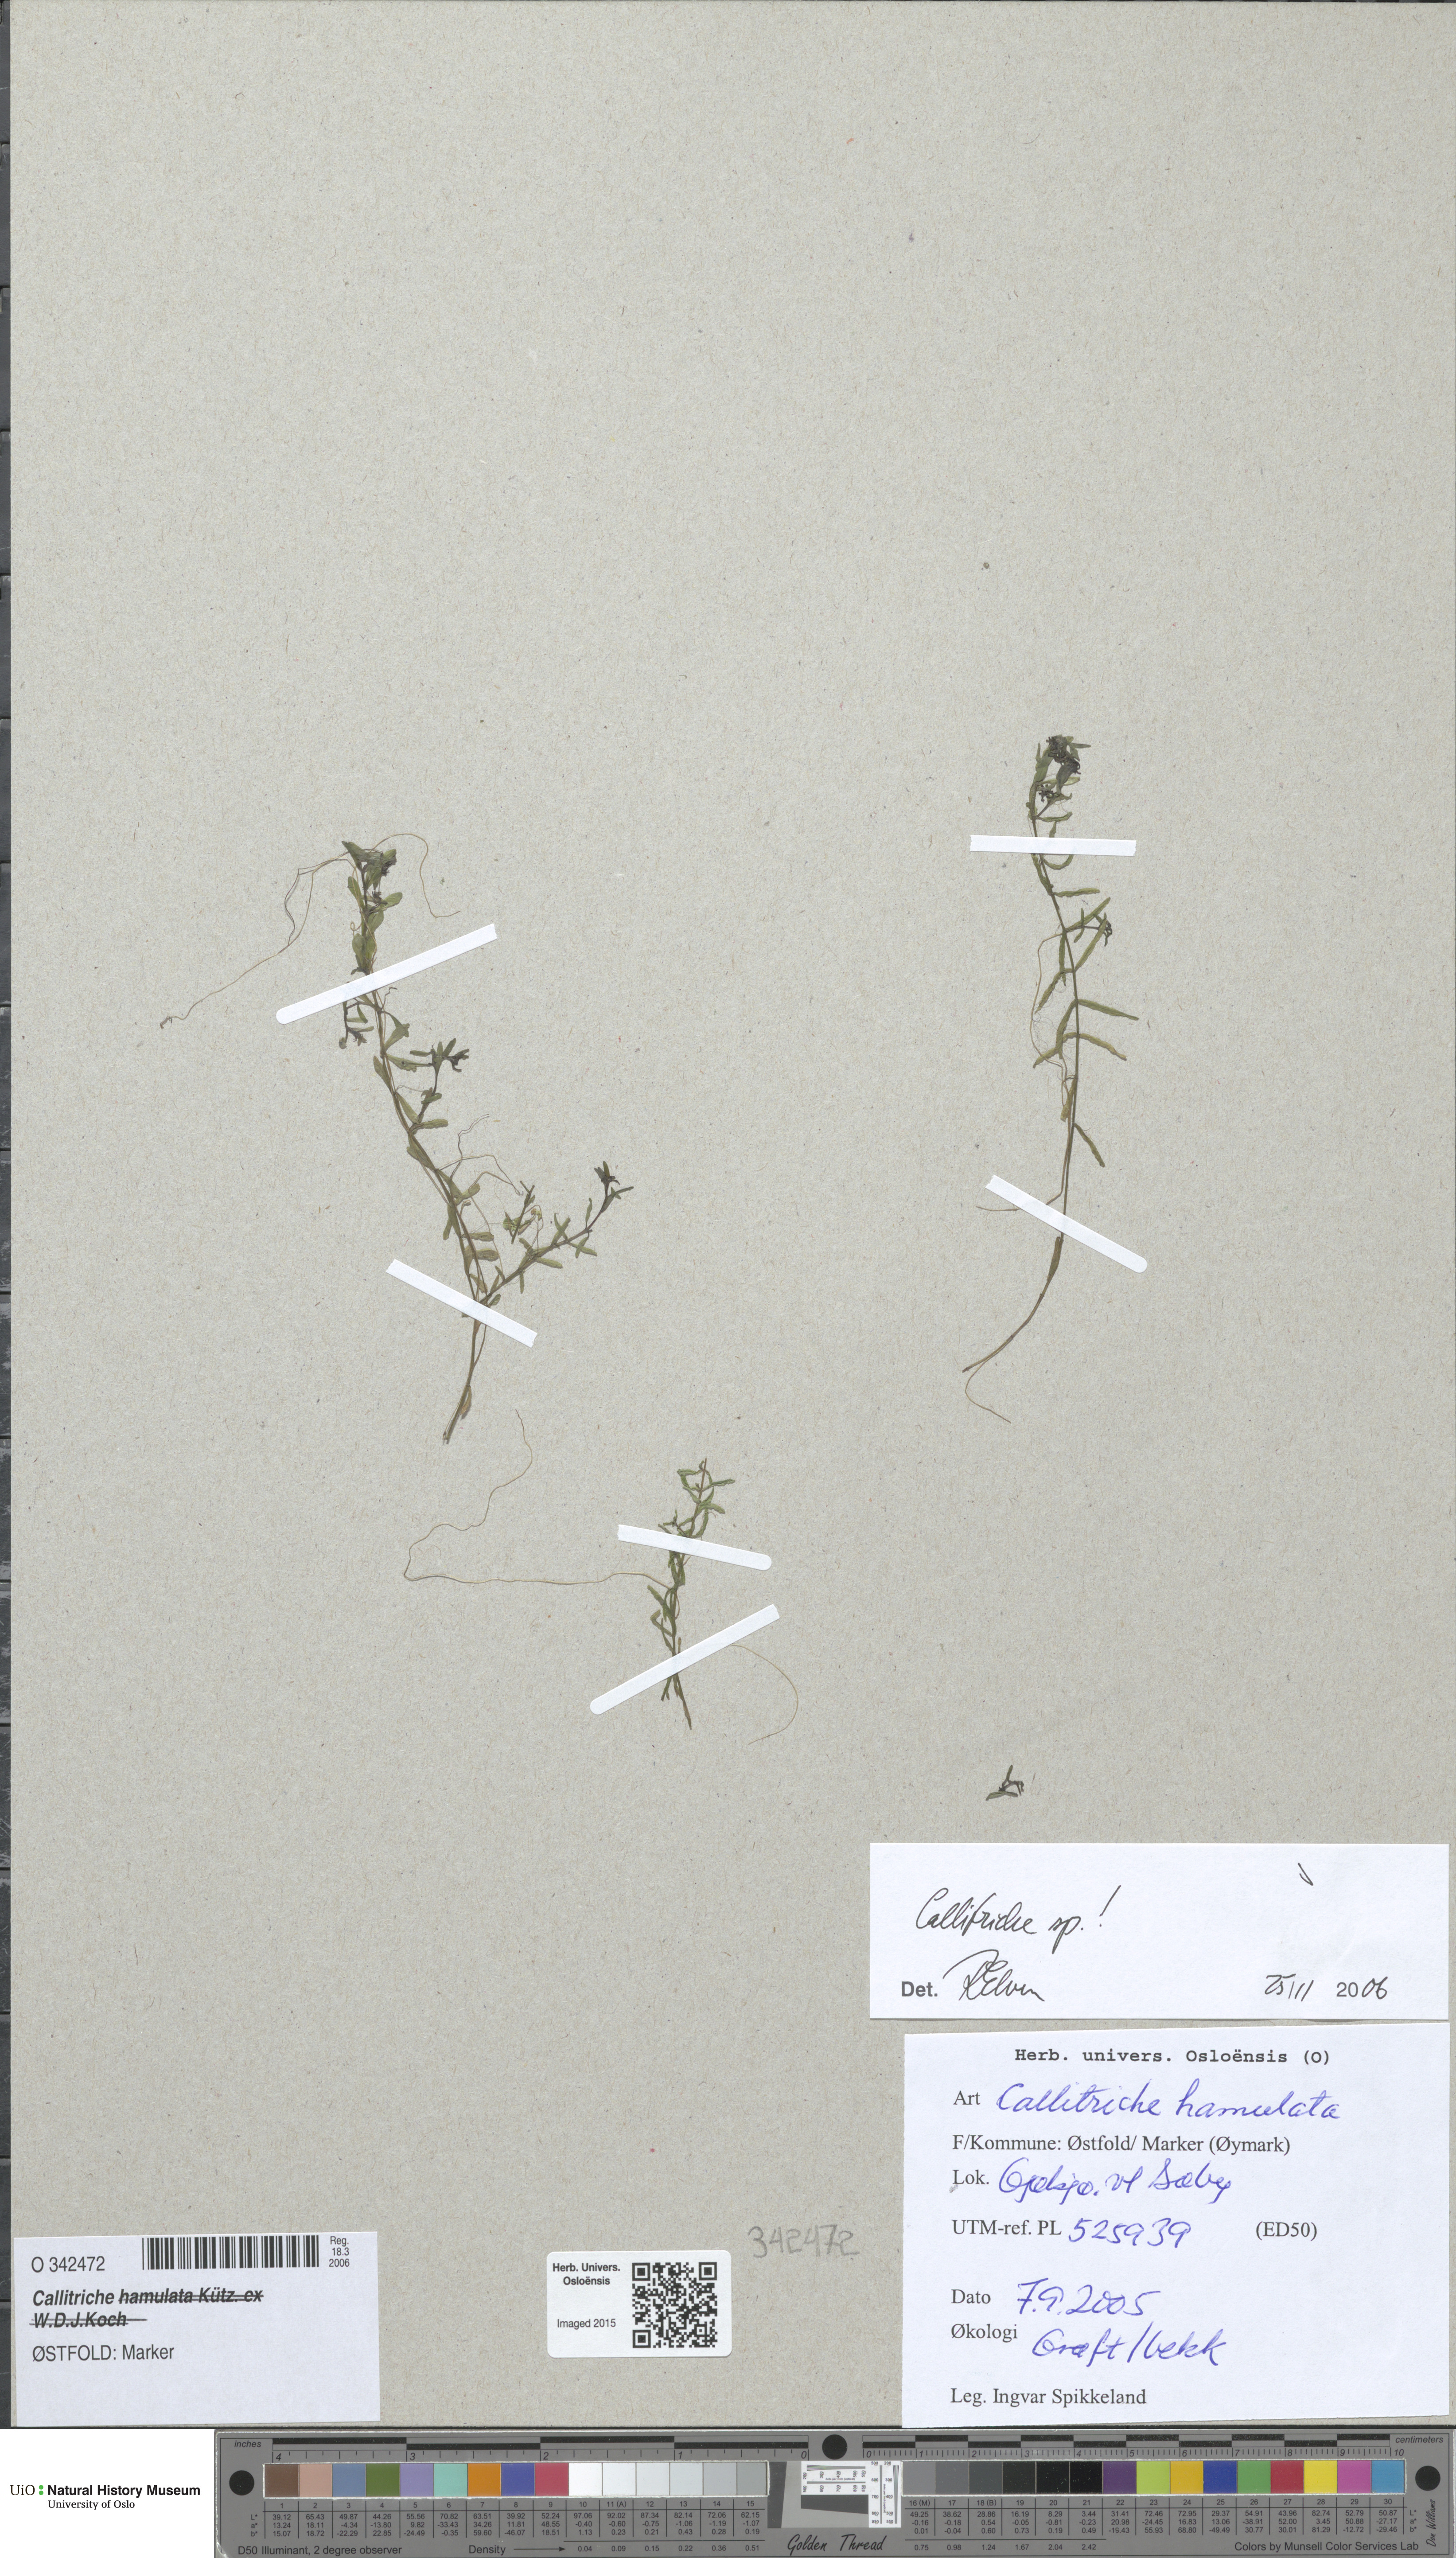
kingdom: Plantae
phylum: Tracheophyta
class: Magnoliopsida
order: Lamiales
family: Plantaginaceae
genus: Callitriche
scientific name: Callitriche
